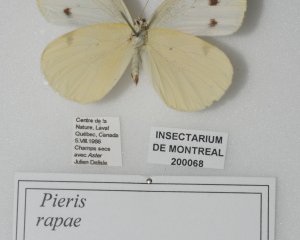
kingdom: Animalia
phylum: Arthropoda
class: Insecta
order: Lepidoptera
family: Pieridae
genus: Pieris
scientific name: Pieris rapae
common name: Cabbage White
